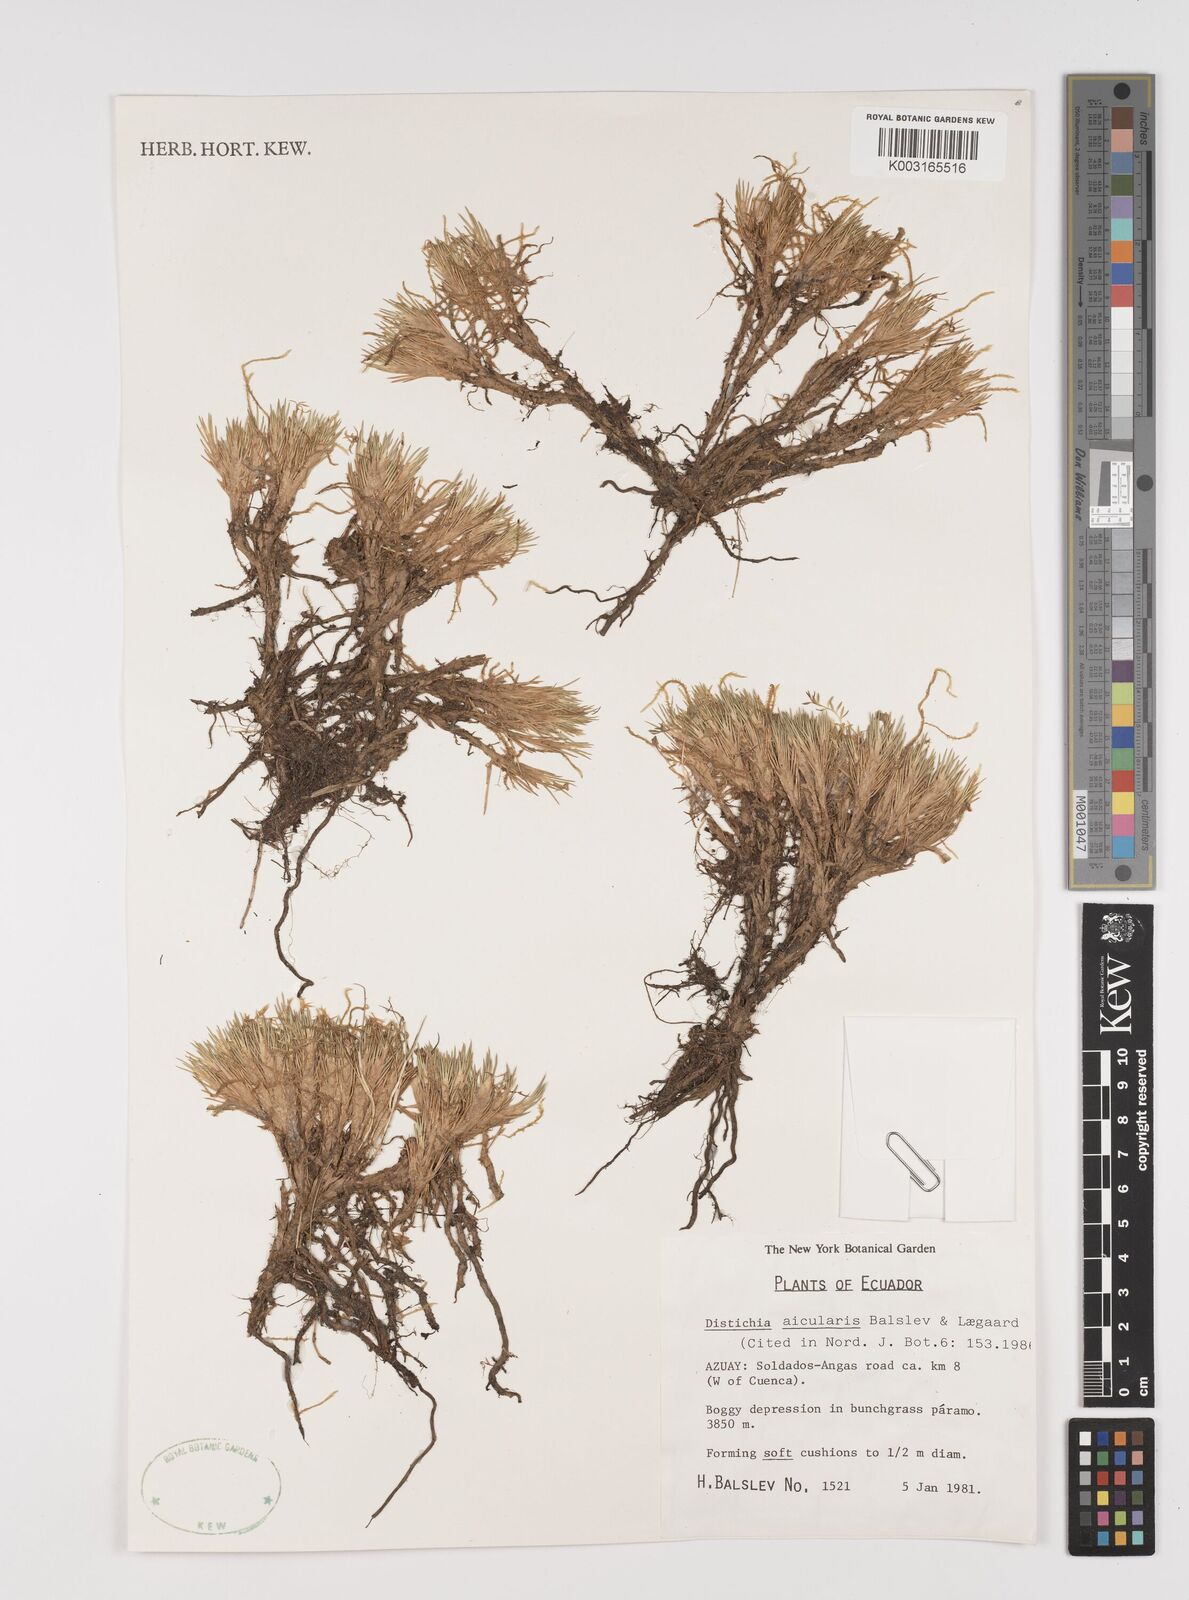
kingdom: Plantae
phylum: Tracheophyta
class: Liliopsida
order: Poales
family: Juncaceae
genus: Distichia
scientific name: Distichia acicularis
